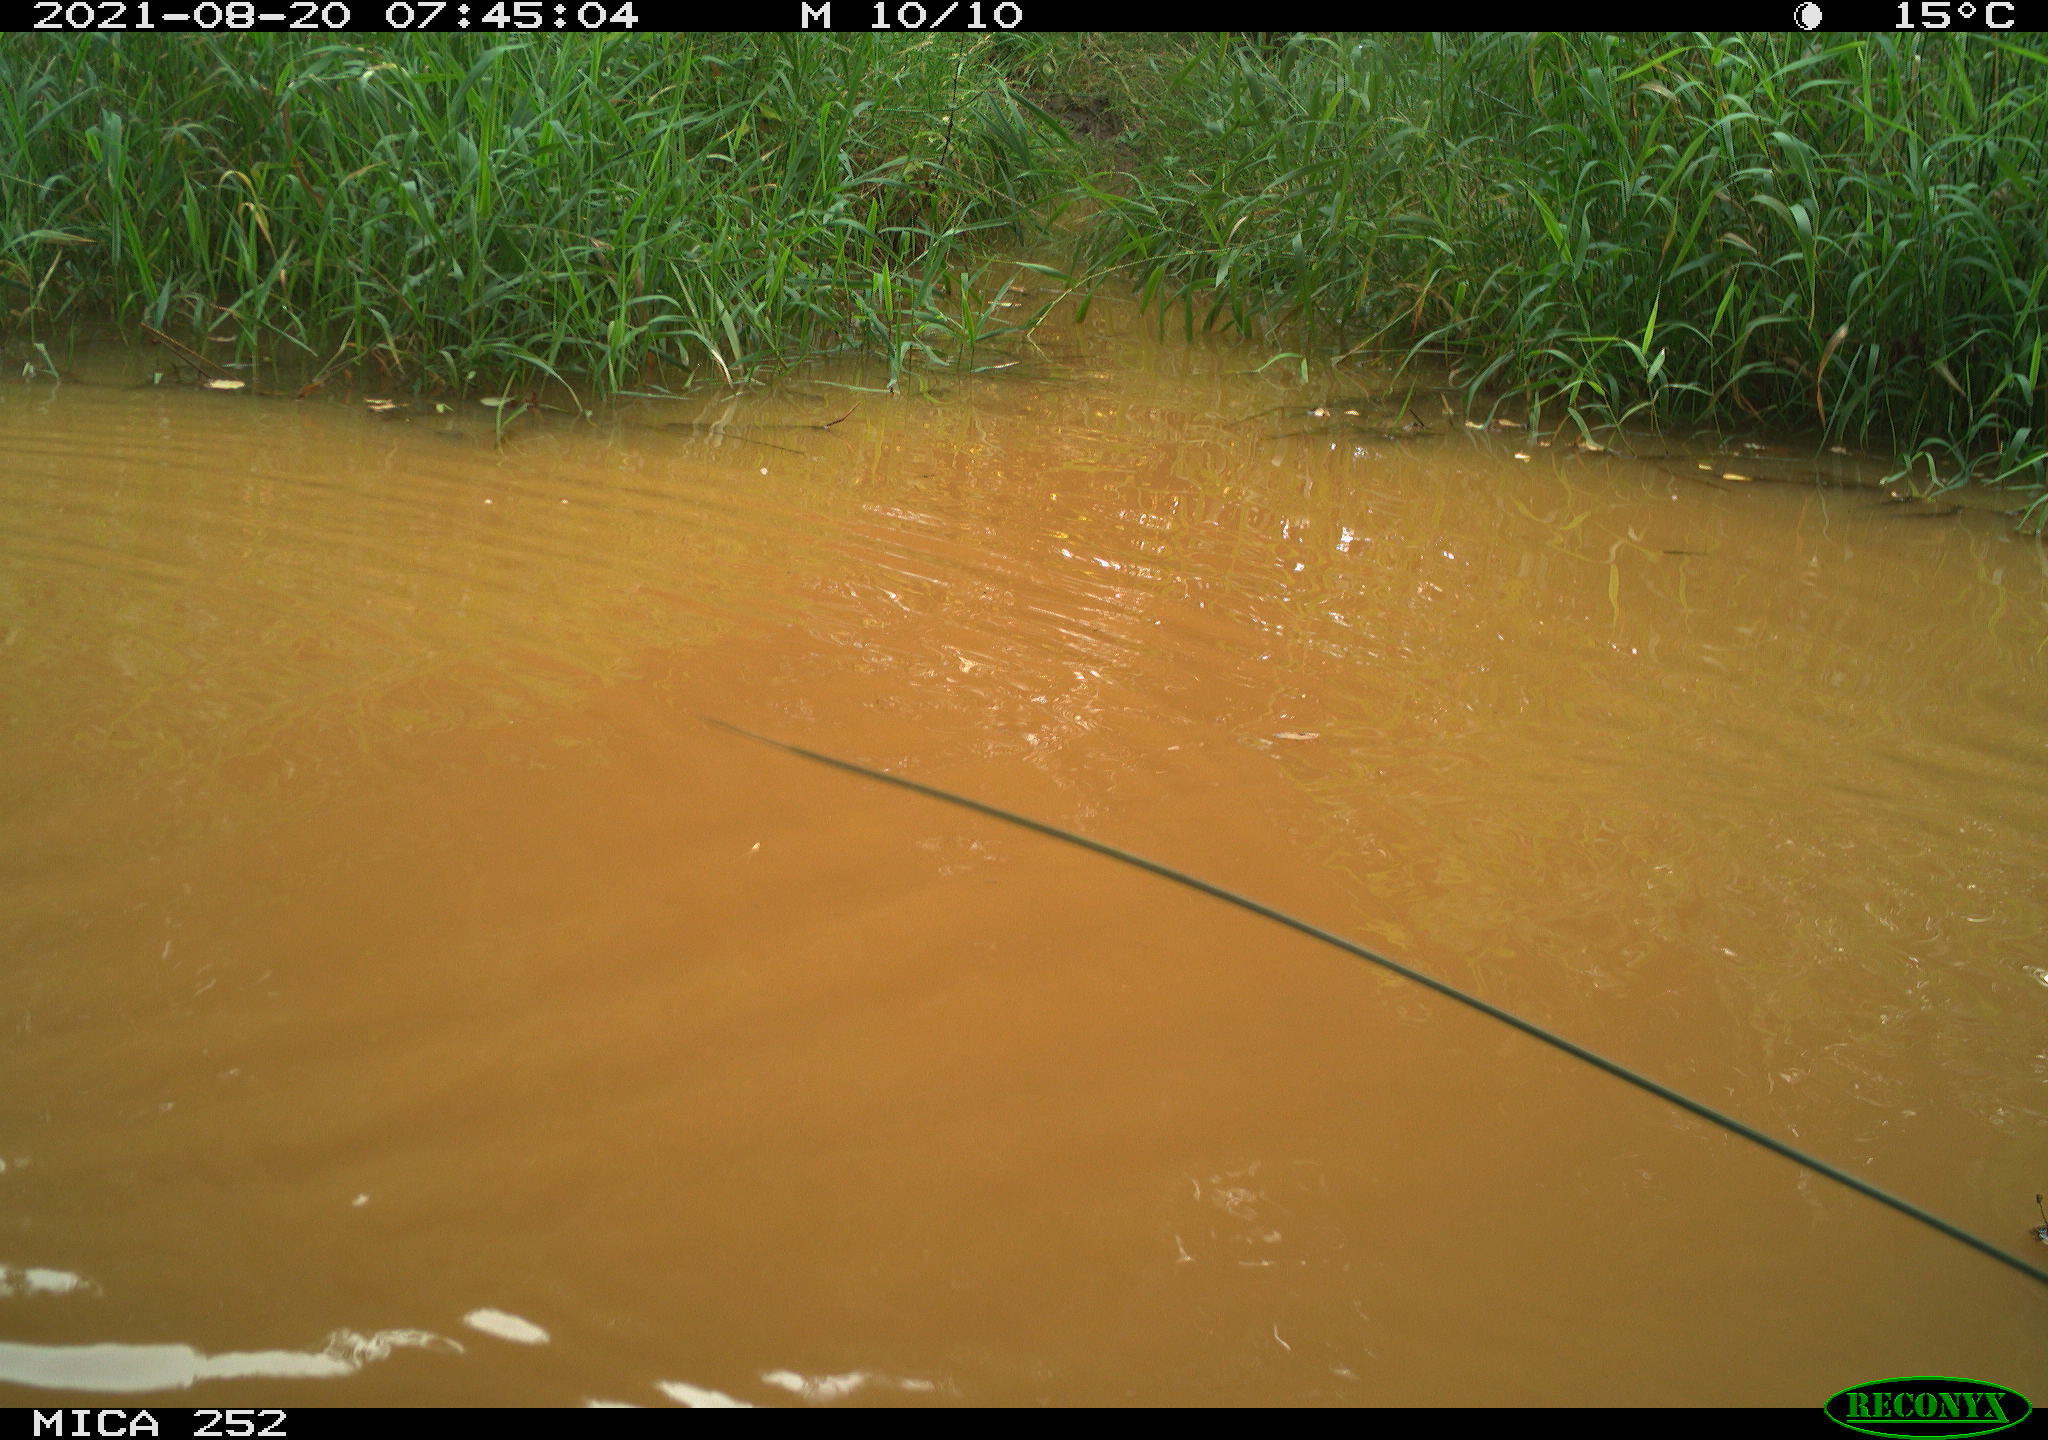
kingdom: Animalia
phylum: Chordata
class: Aves
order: Gruiformes
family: Rallidae
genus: Gallinula
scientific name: Gallinula chloropus
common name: Common moorhen
